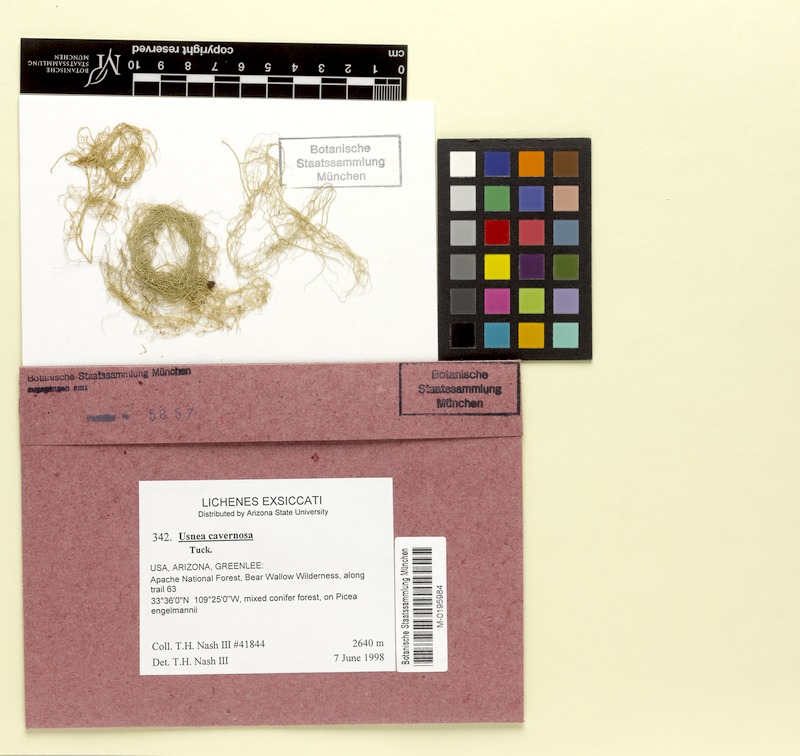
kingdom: Fungi
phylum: Ascomycota
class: Lecanoromycetes
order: Lecanorales
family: Parmeliaceae
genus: Usnea
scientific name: Usnea cavernosa
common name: Pitted beard lichen
